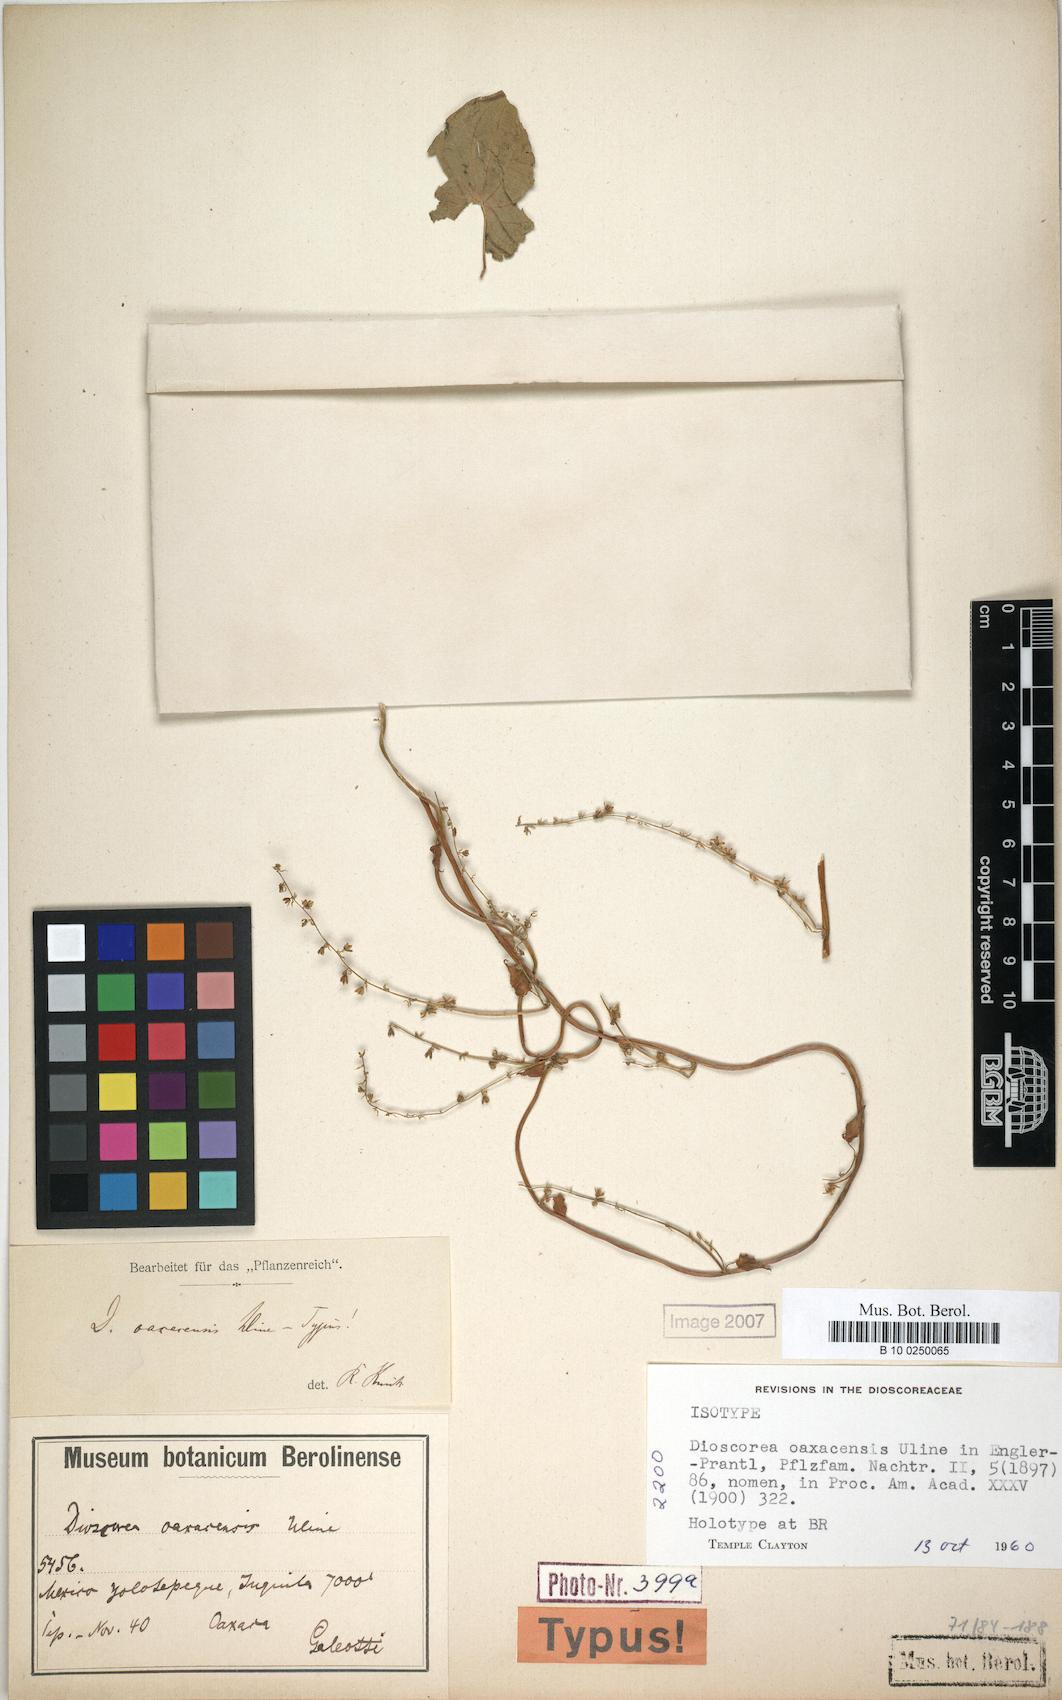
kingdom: Plantae
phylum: Tracheophyta
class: Liliopsida
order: Dioscoreales
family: Dioscoreaceae
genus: Dioscorea
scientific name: Dioscorea oaxacensis
